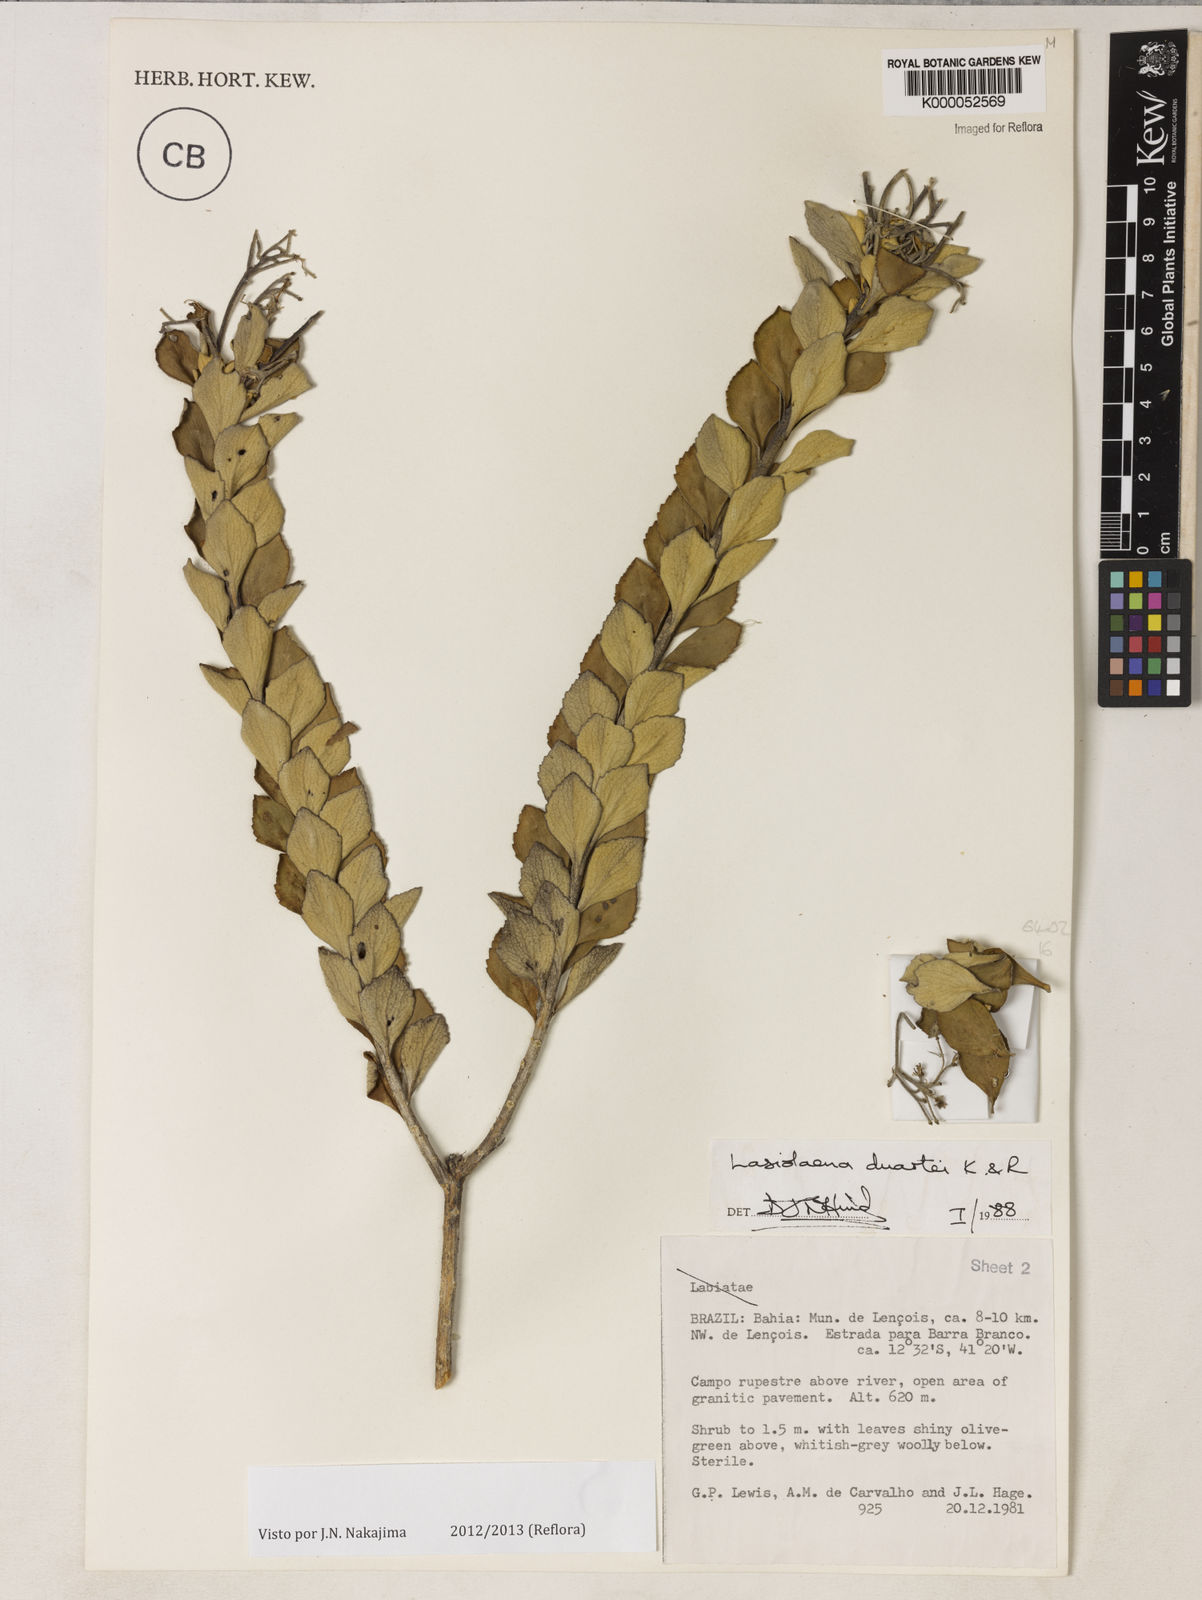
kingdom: Plantae
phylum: Tracheophyta
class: Magnoliopsida
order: Asterales
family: Asteraceae
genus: Lasiolaena
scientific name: Lasiolaena duartei
